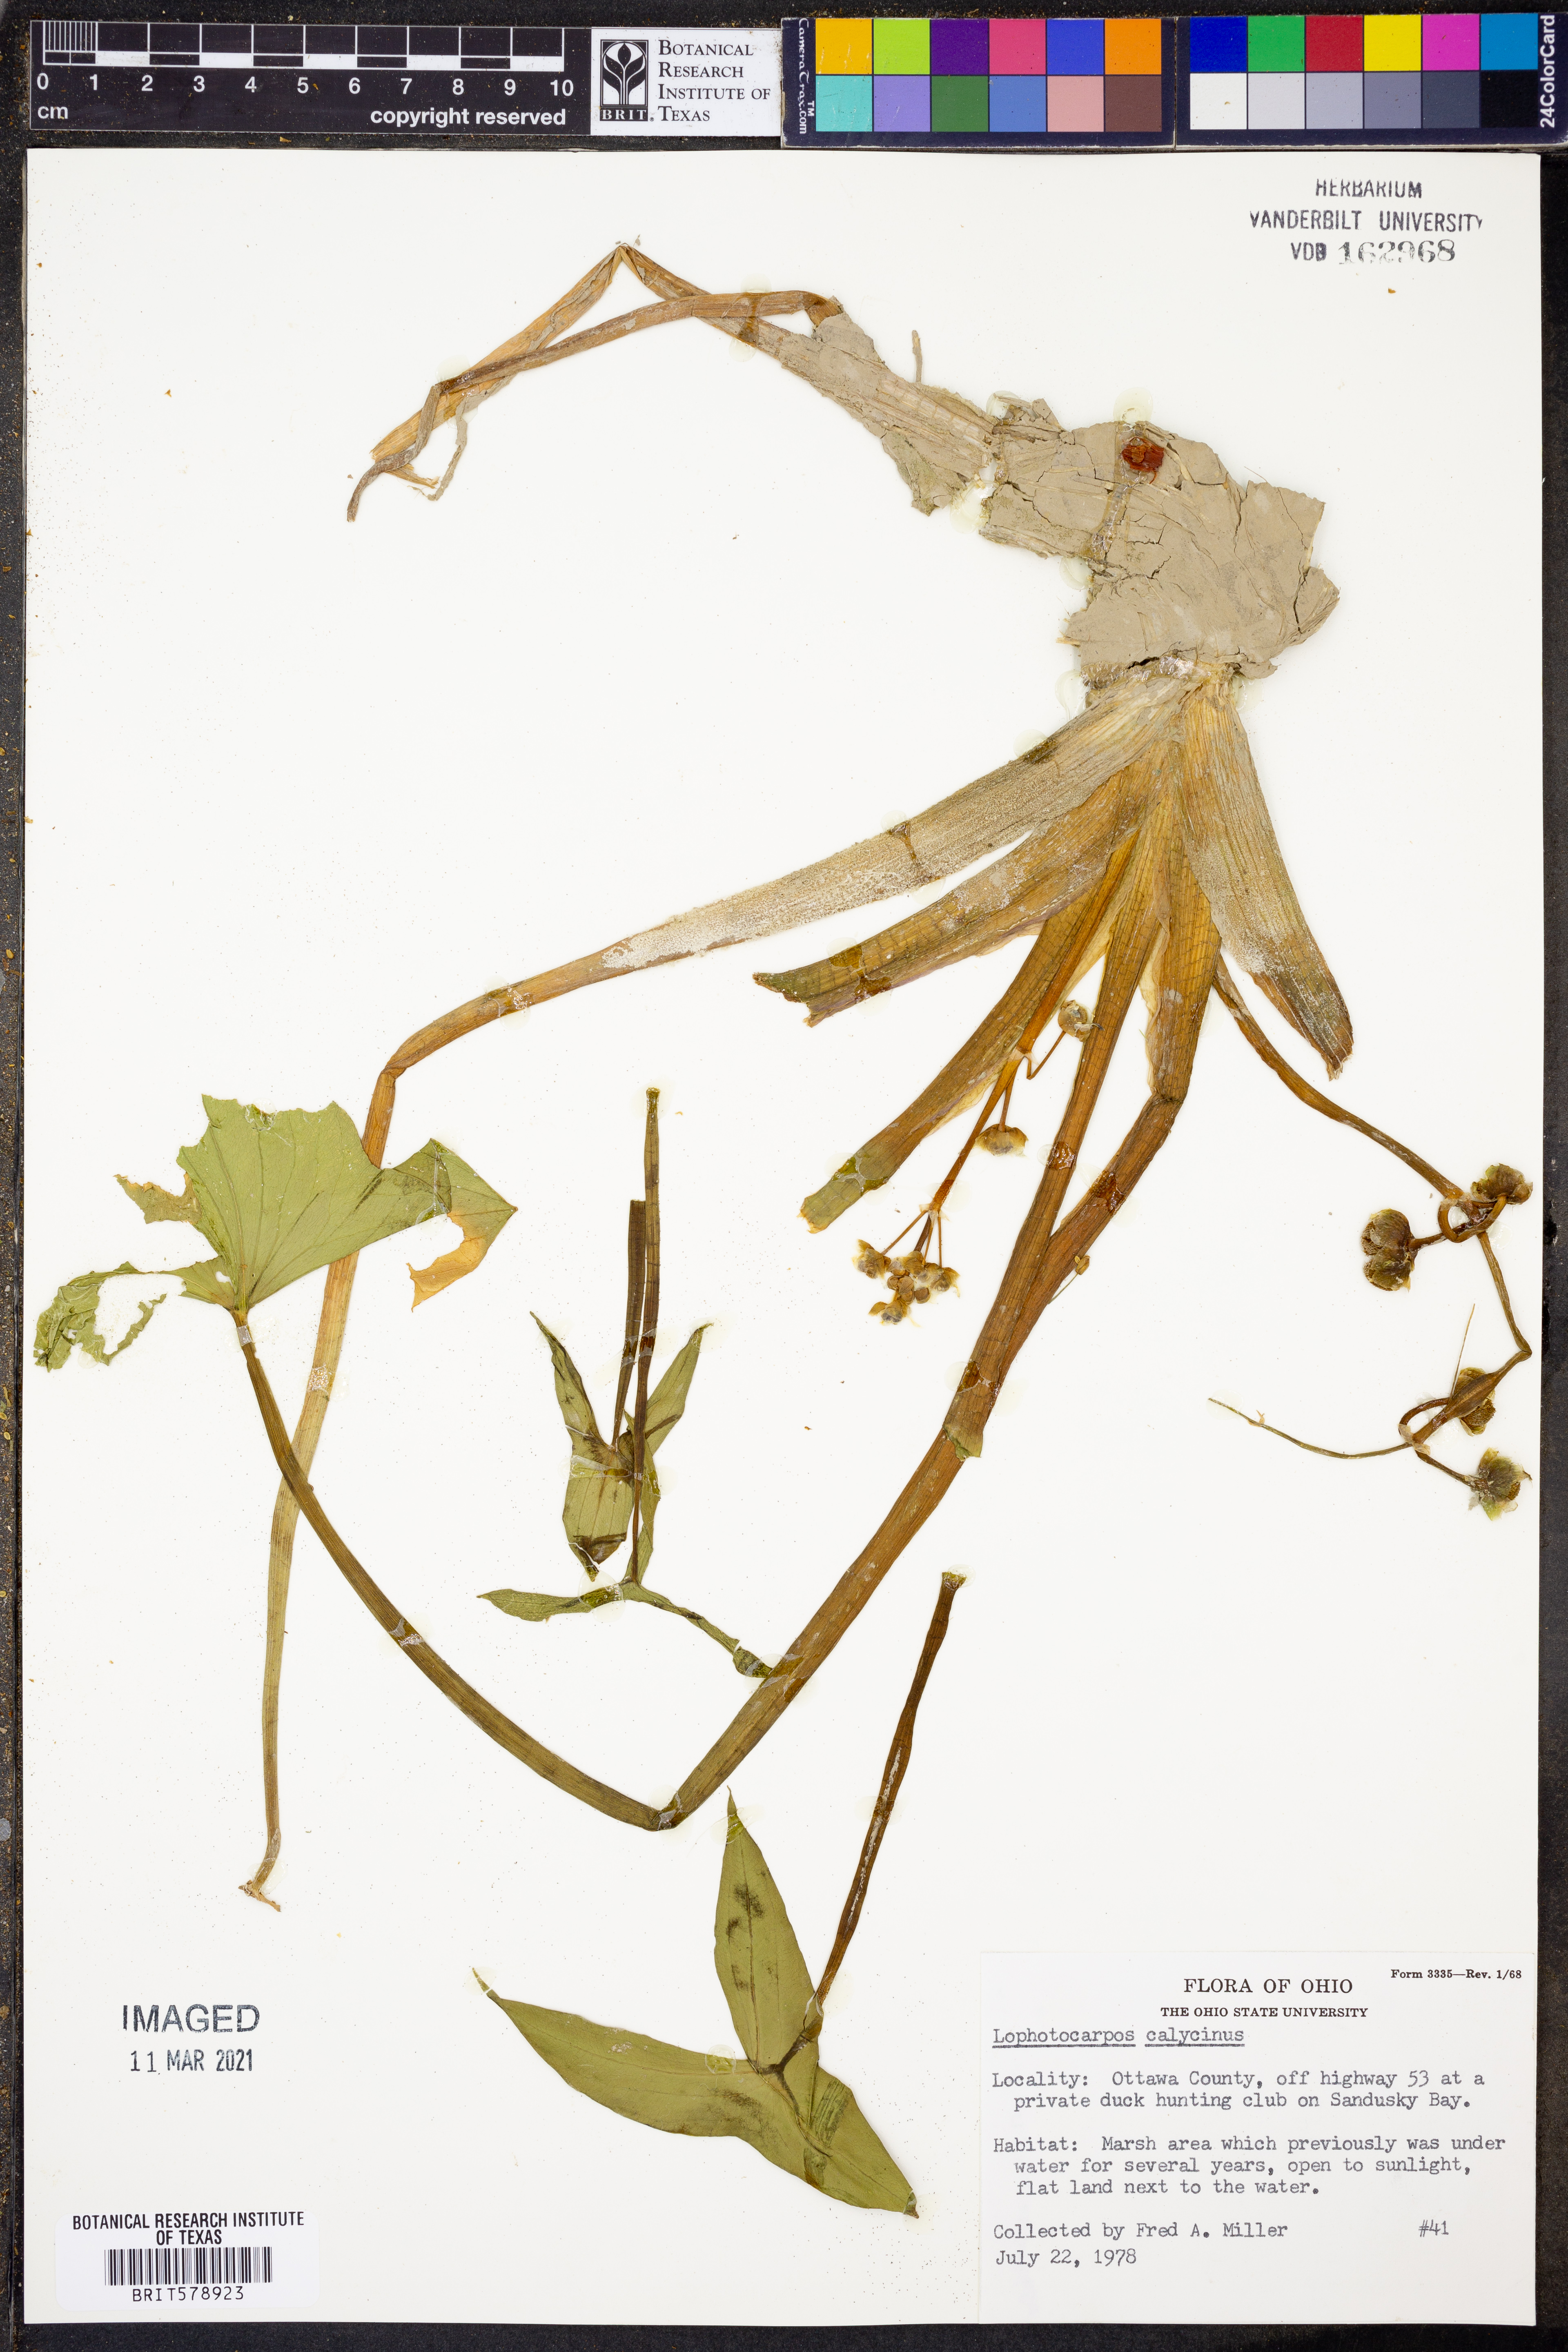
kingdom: Plantae
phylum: Tracheophyta
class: Liliopsida
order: Alismatales
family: Alismataceae
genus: Sagittaria
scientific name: Sagittaria montevidensis
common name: Giant arrowhead
